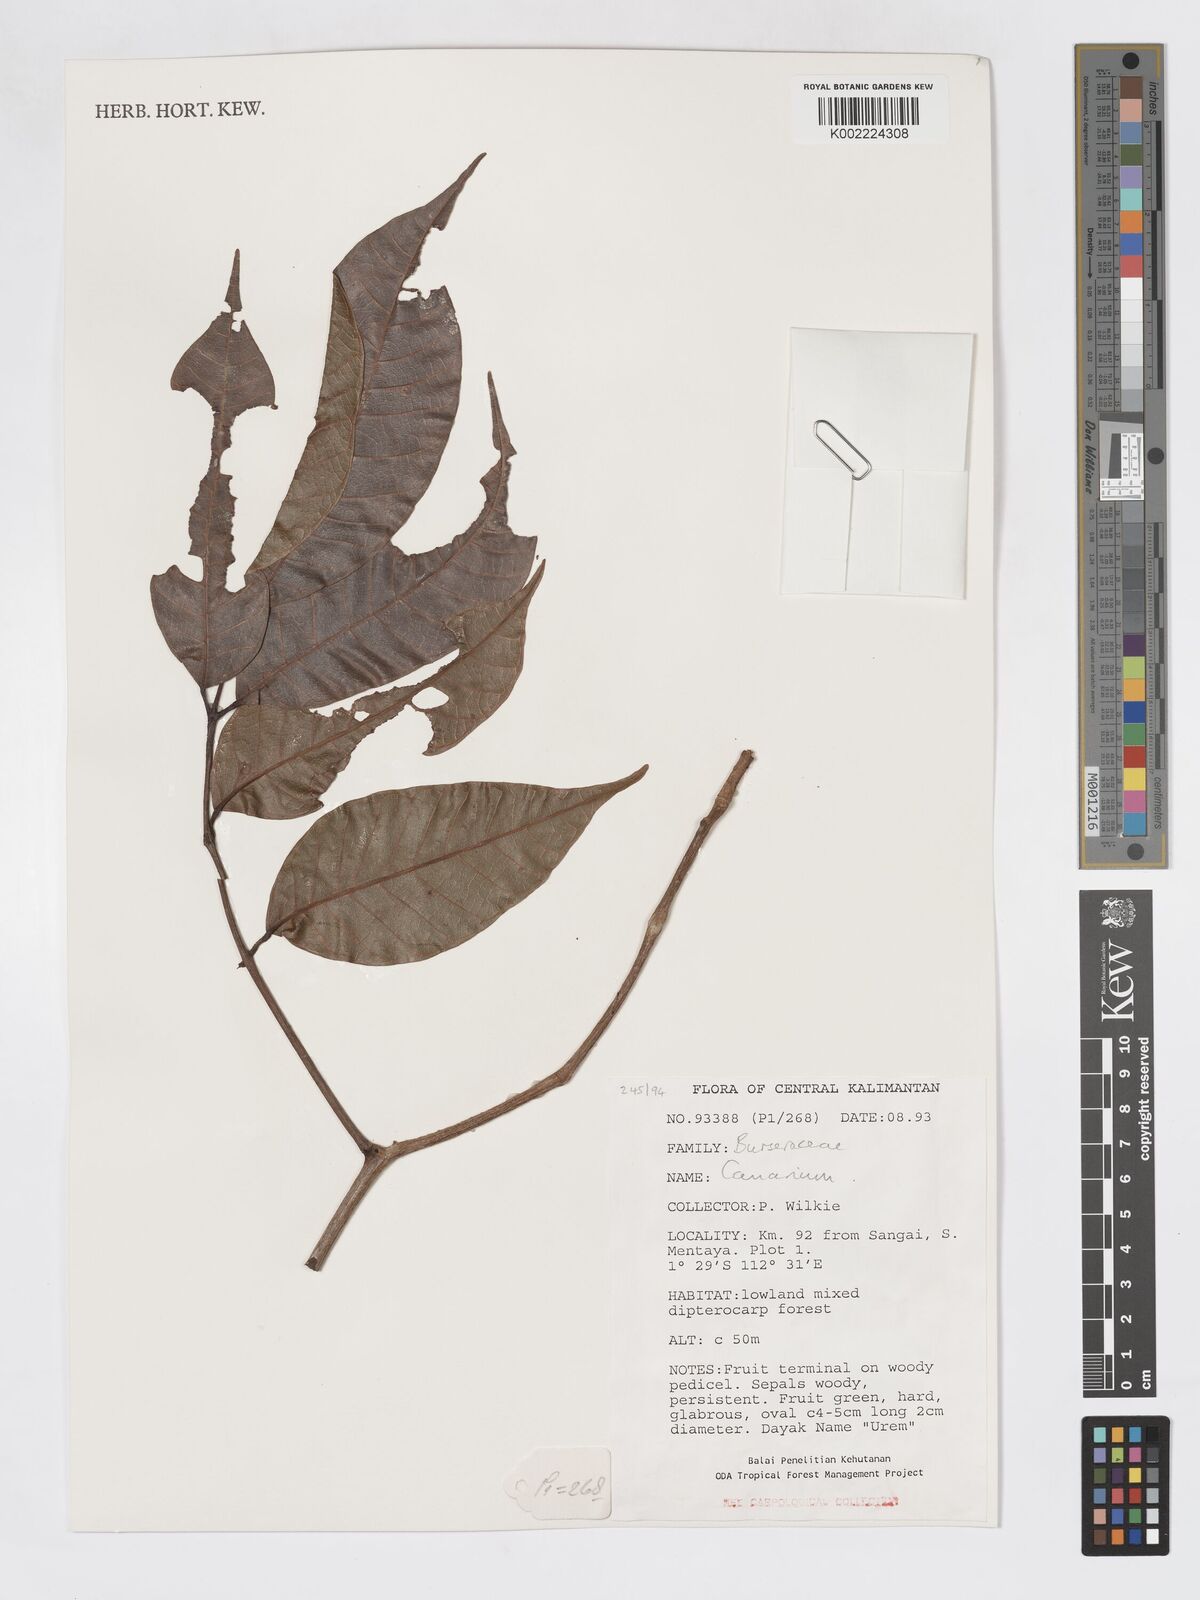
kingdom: Plantae
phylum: Tracheophyta
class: Magnoliopsida
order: Sapindales
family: Burseraceae
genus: Canarium
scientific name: Canarium
